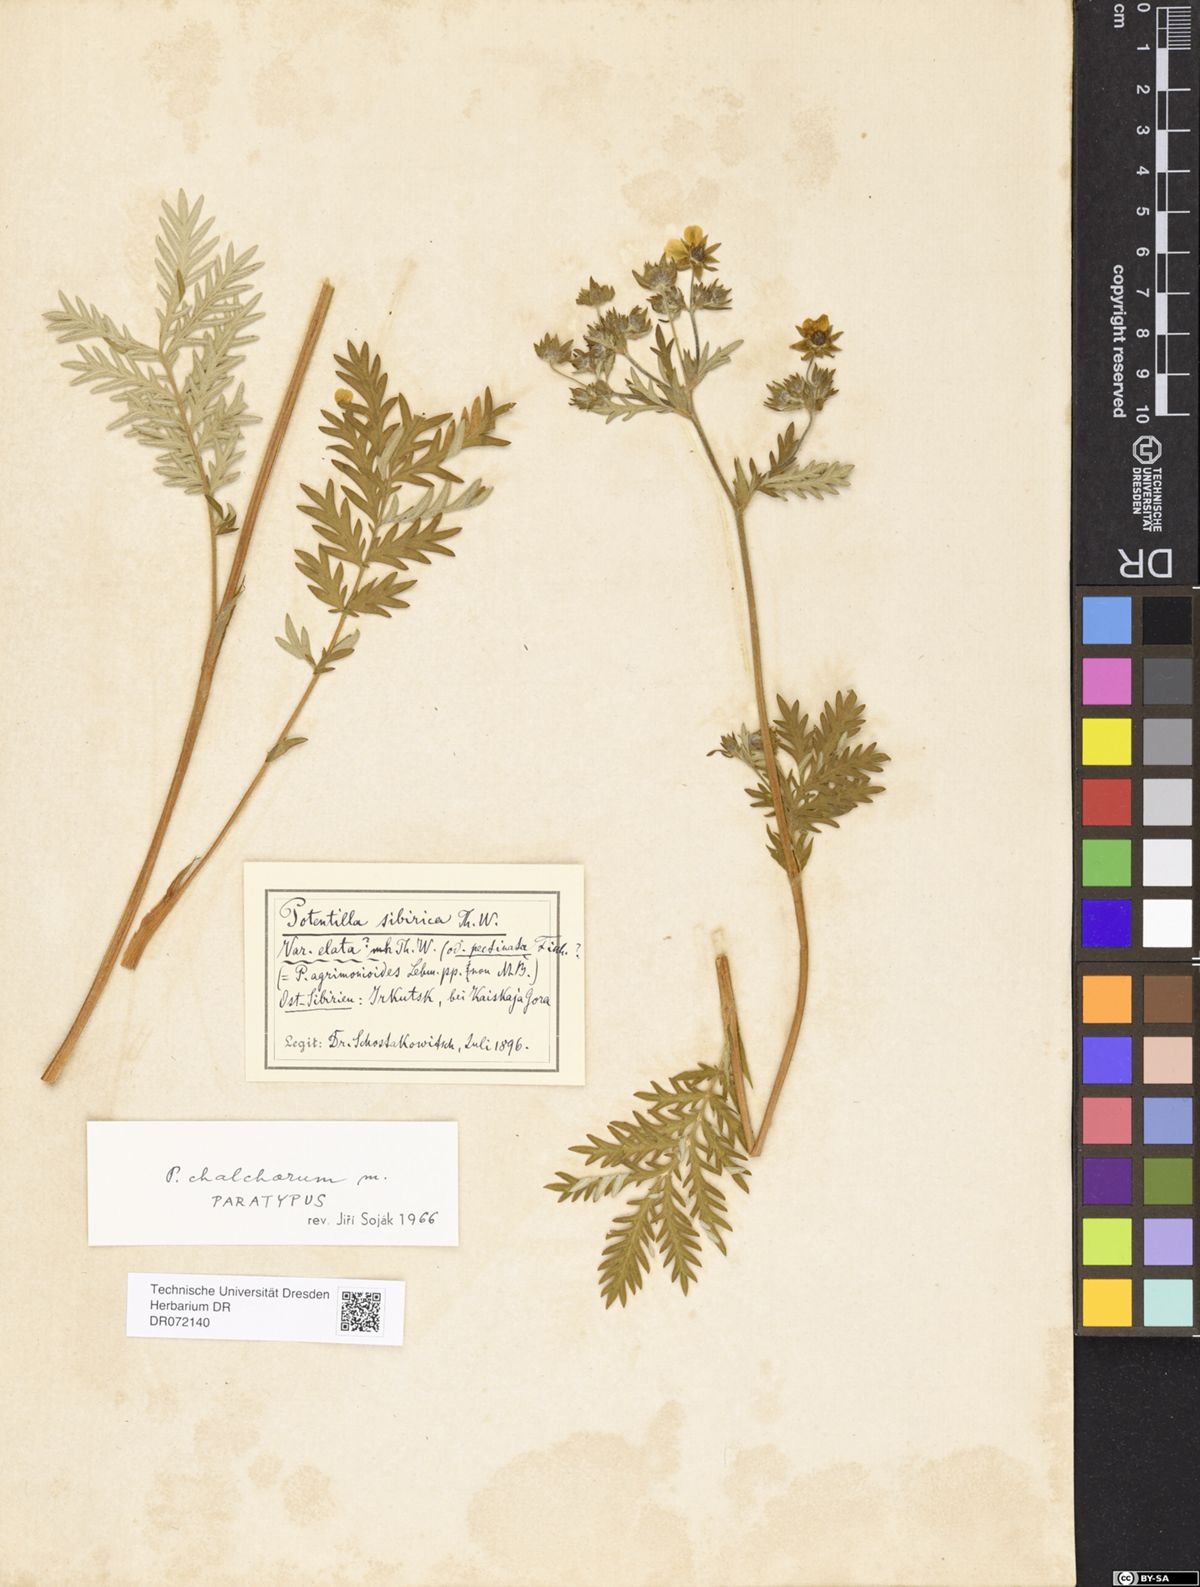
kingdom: Plantae
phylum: Tracheophyta
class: Magnoliopsida
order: Rosales
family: Rosaceae
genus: Potentilla
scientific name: Potentilla chalchorum
